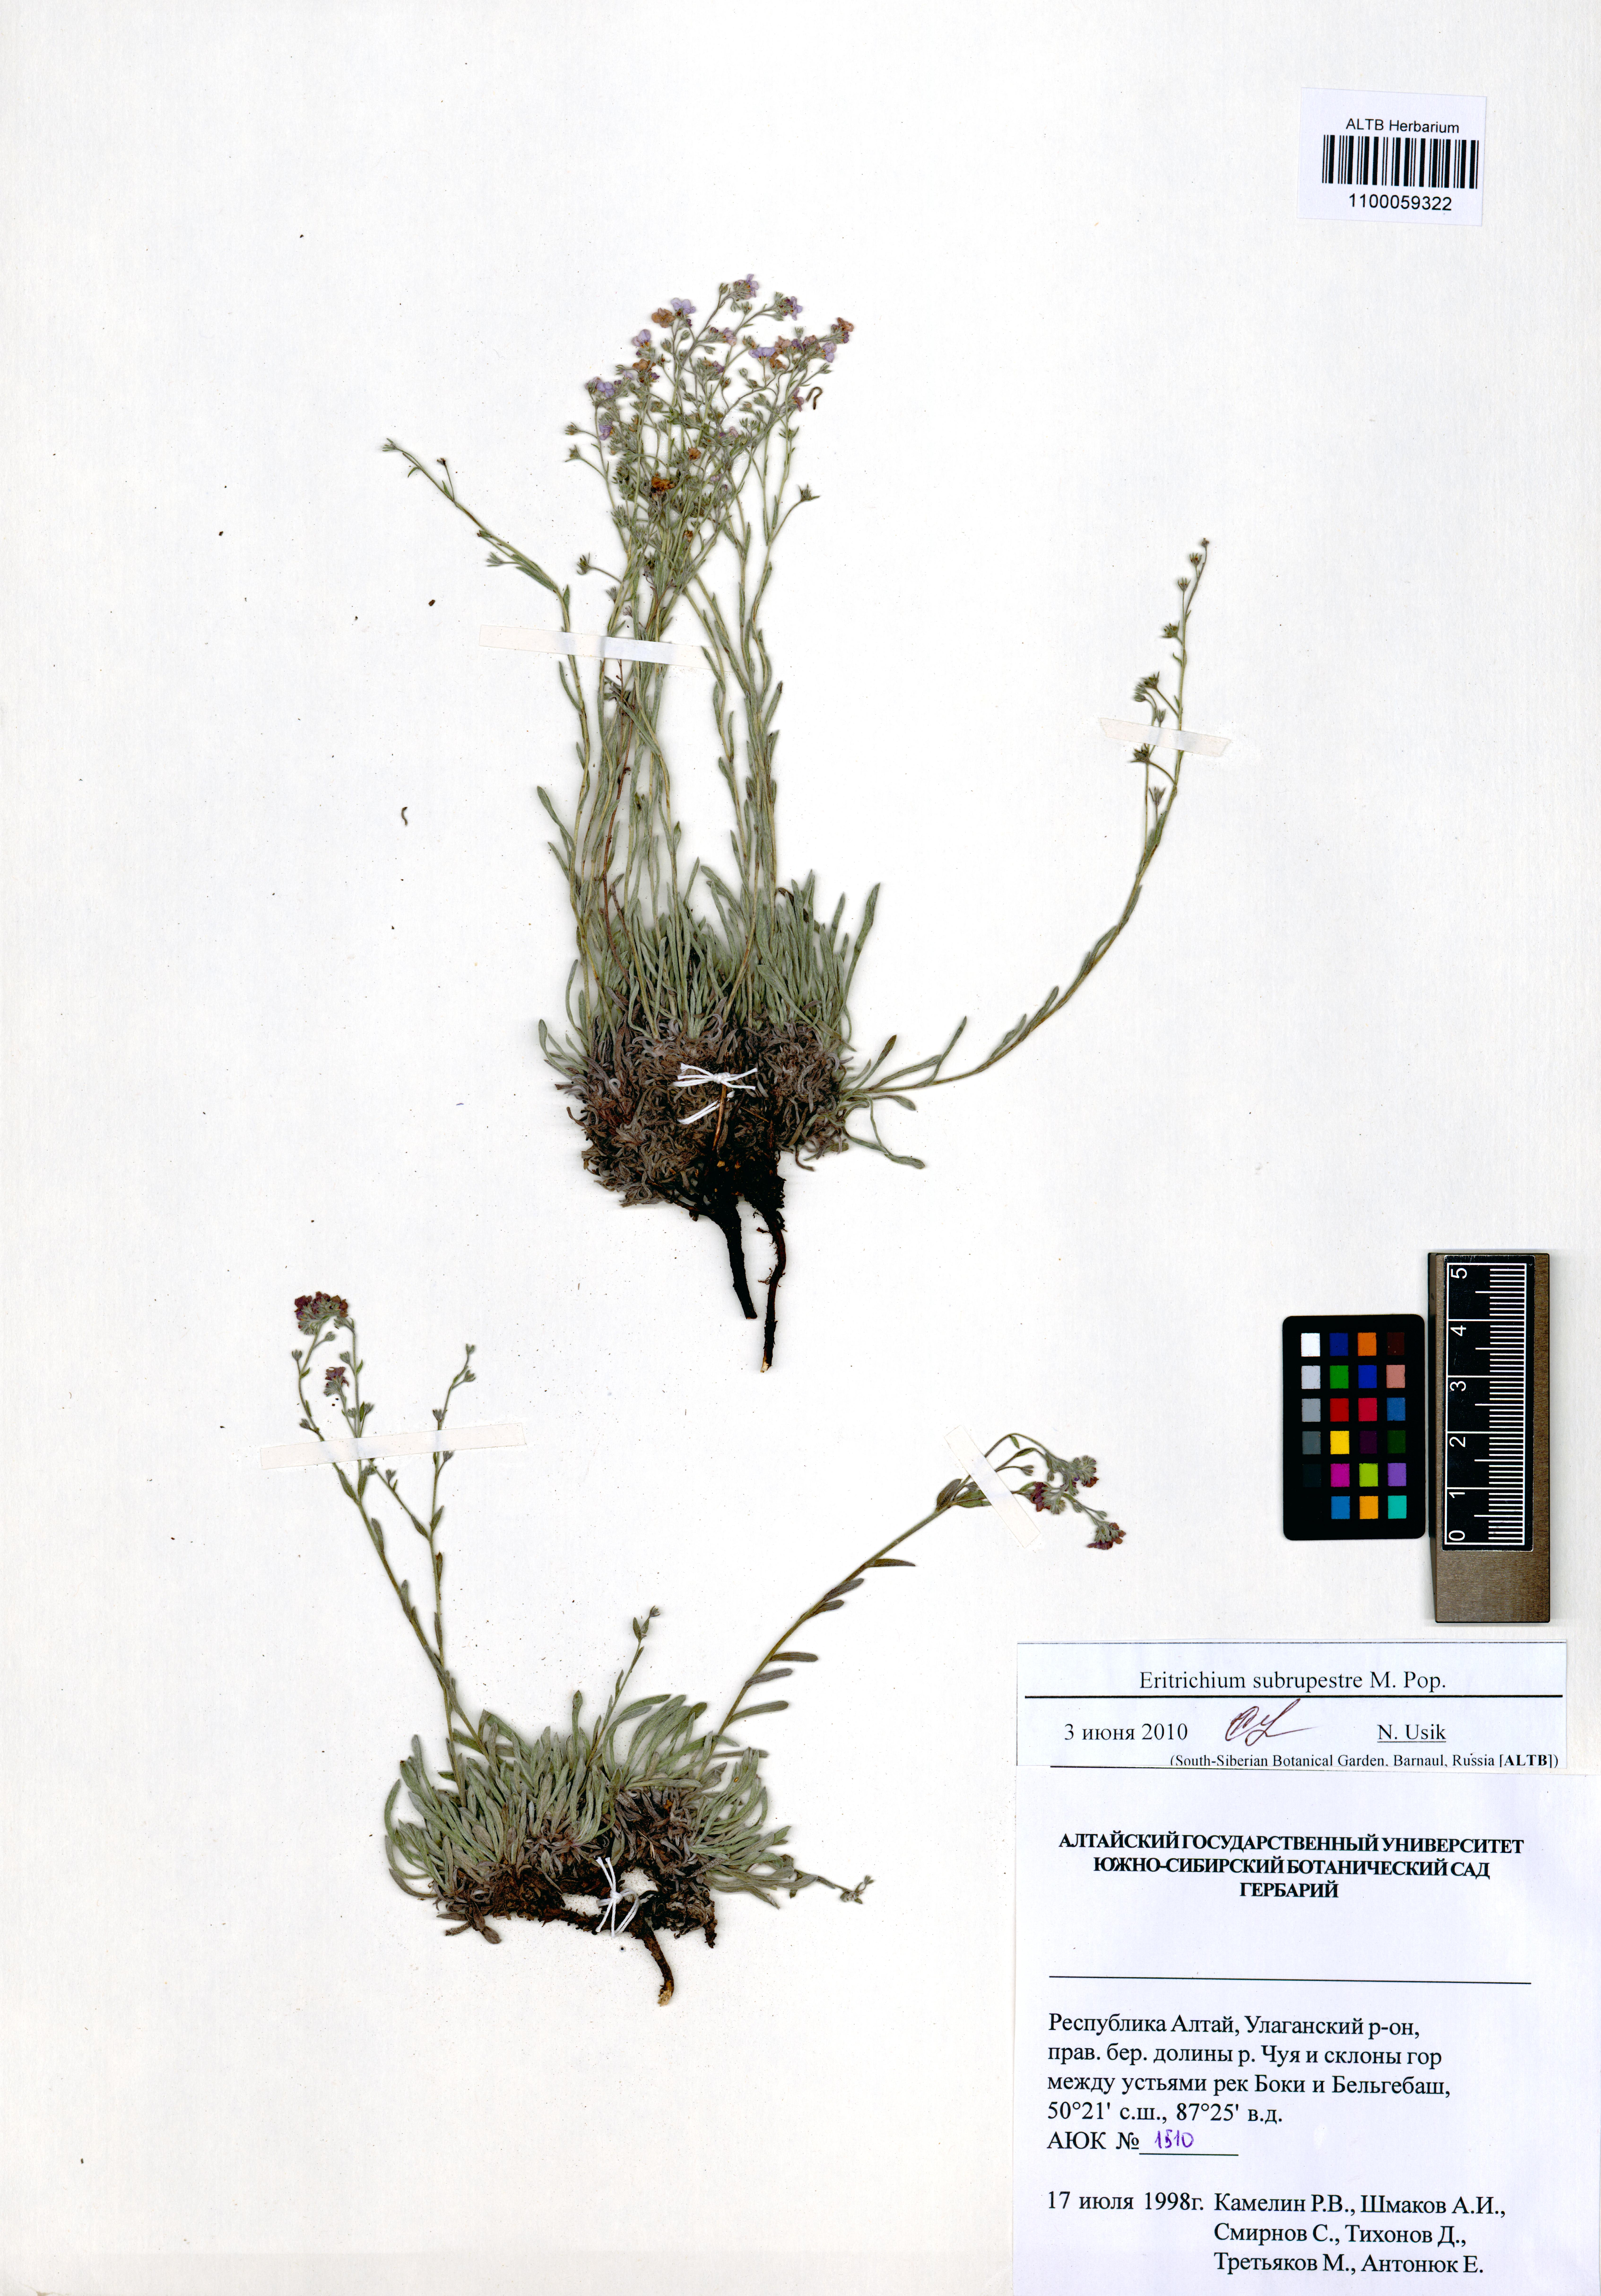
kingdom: Plantae
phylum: Tracheophyta
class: Magnoliopsida
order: Boraginales
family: Boraginaceae
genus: Eritrichium
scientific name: Eritrichium pauciflorum
